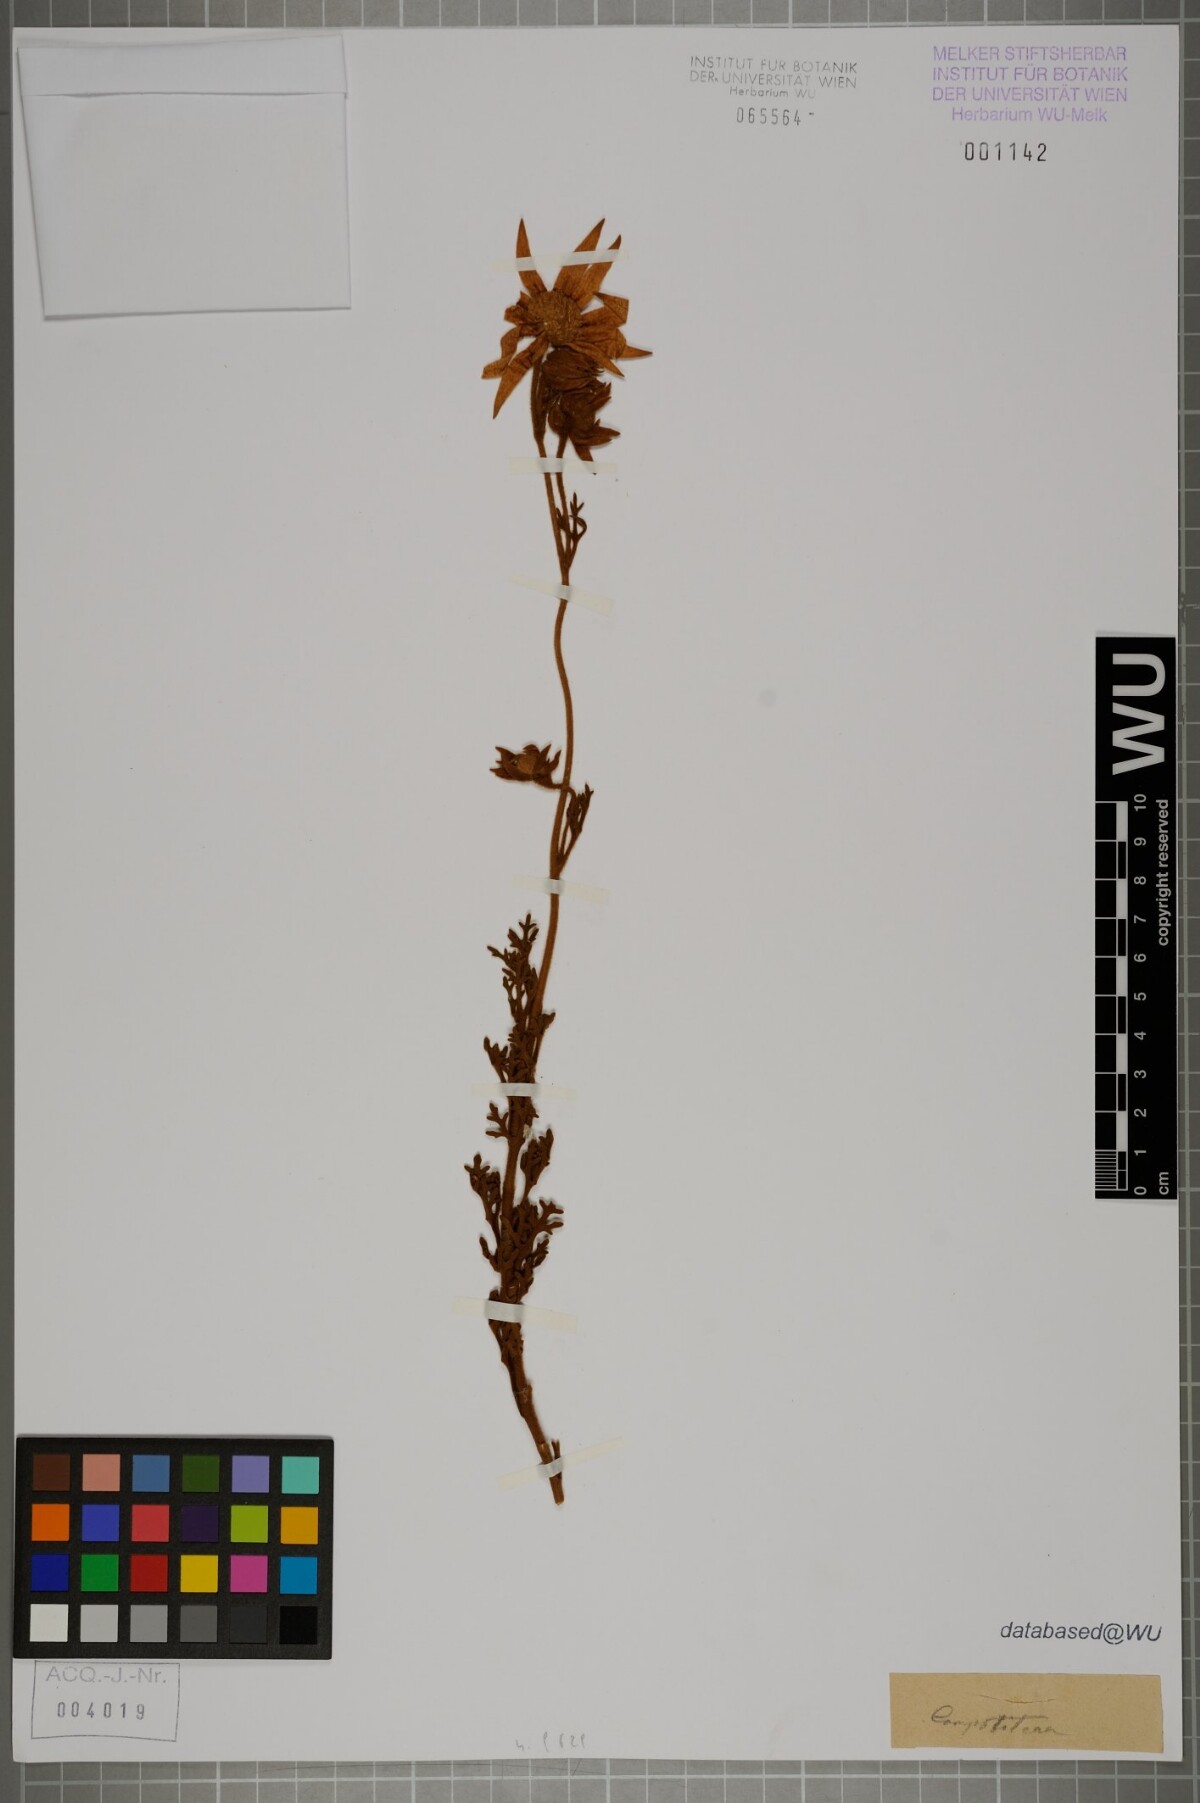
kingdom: Plantae
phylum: Tracheophyta
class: Magnoliopsida
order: Asterales
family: Asteraceae
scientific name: Asteraceae
